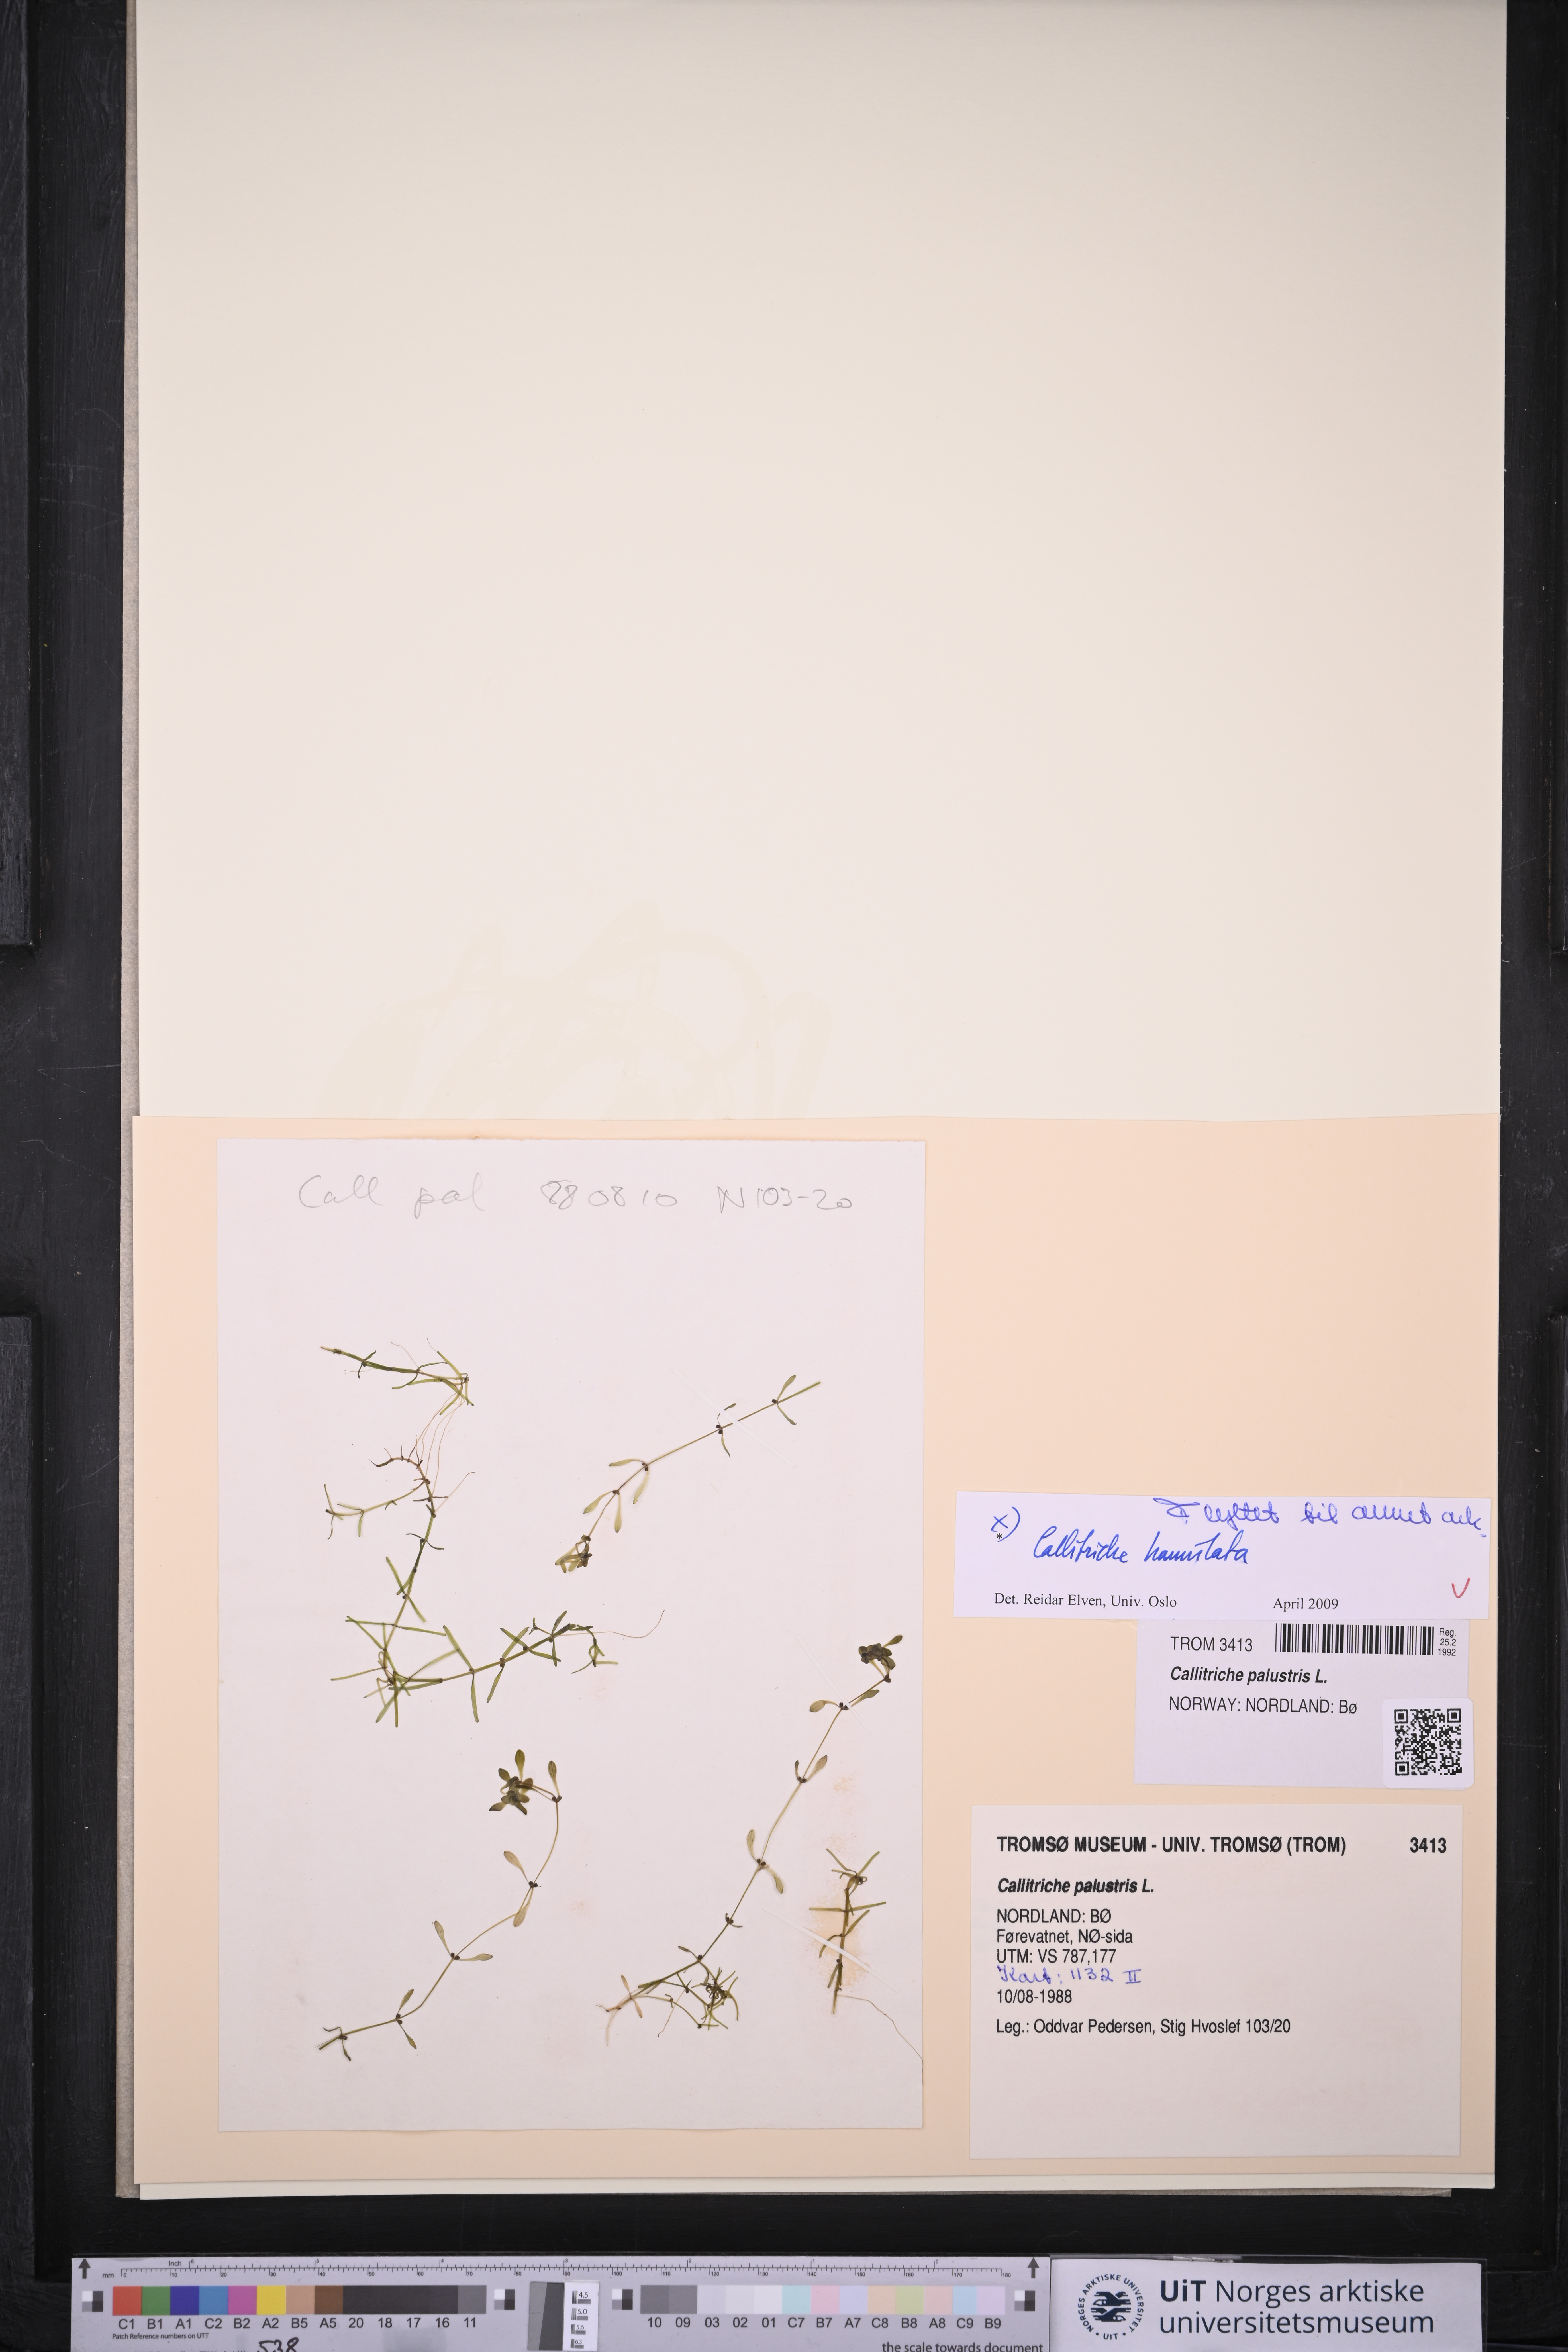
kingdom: Plantae
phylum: Tracheophyta
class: Magnoliopsida
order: Lamiales
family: Plantaginaceae
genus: Callitriche
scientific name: Callitriche palustris
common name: Spring water-starwort
